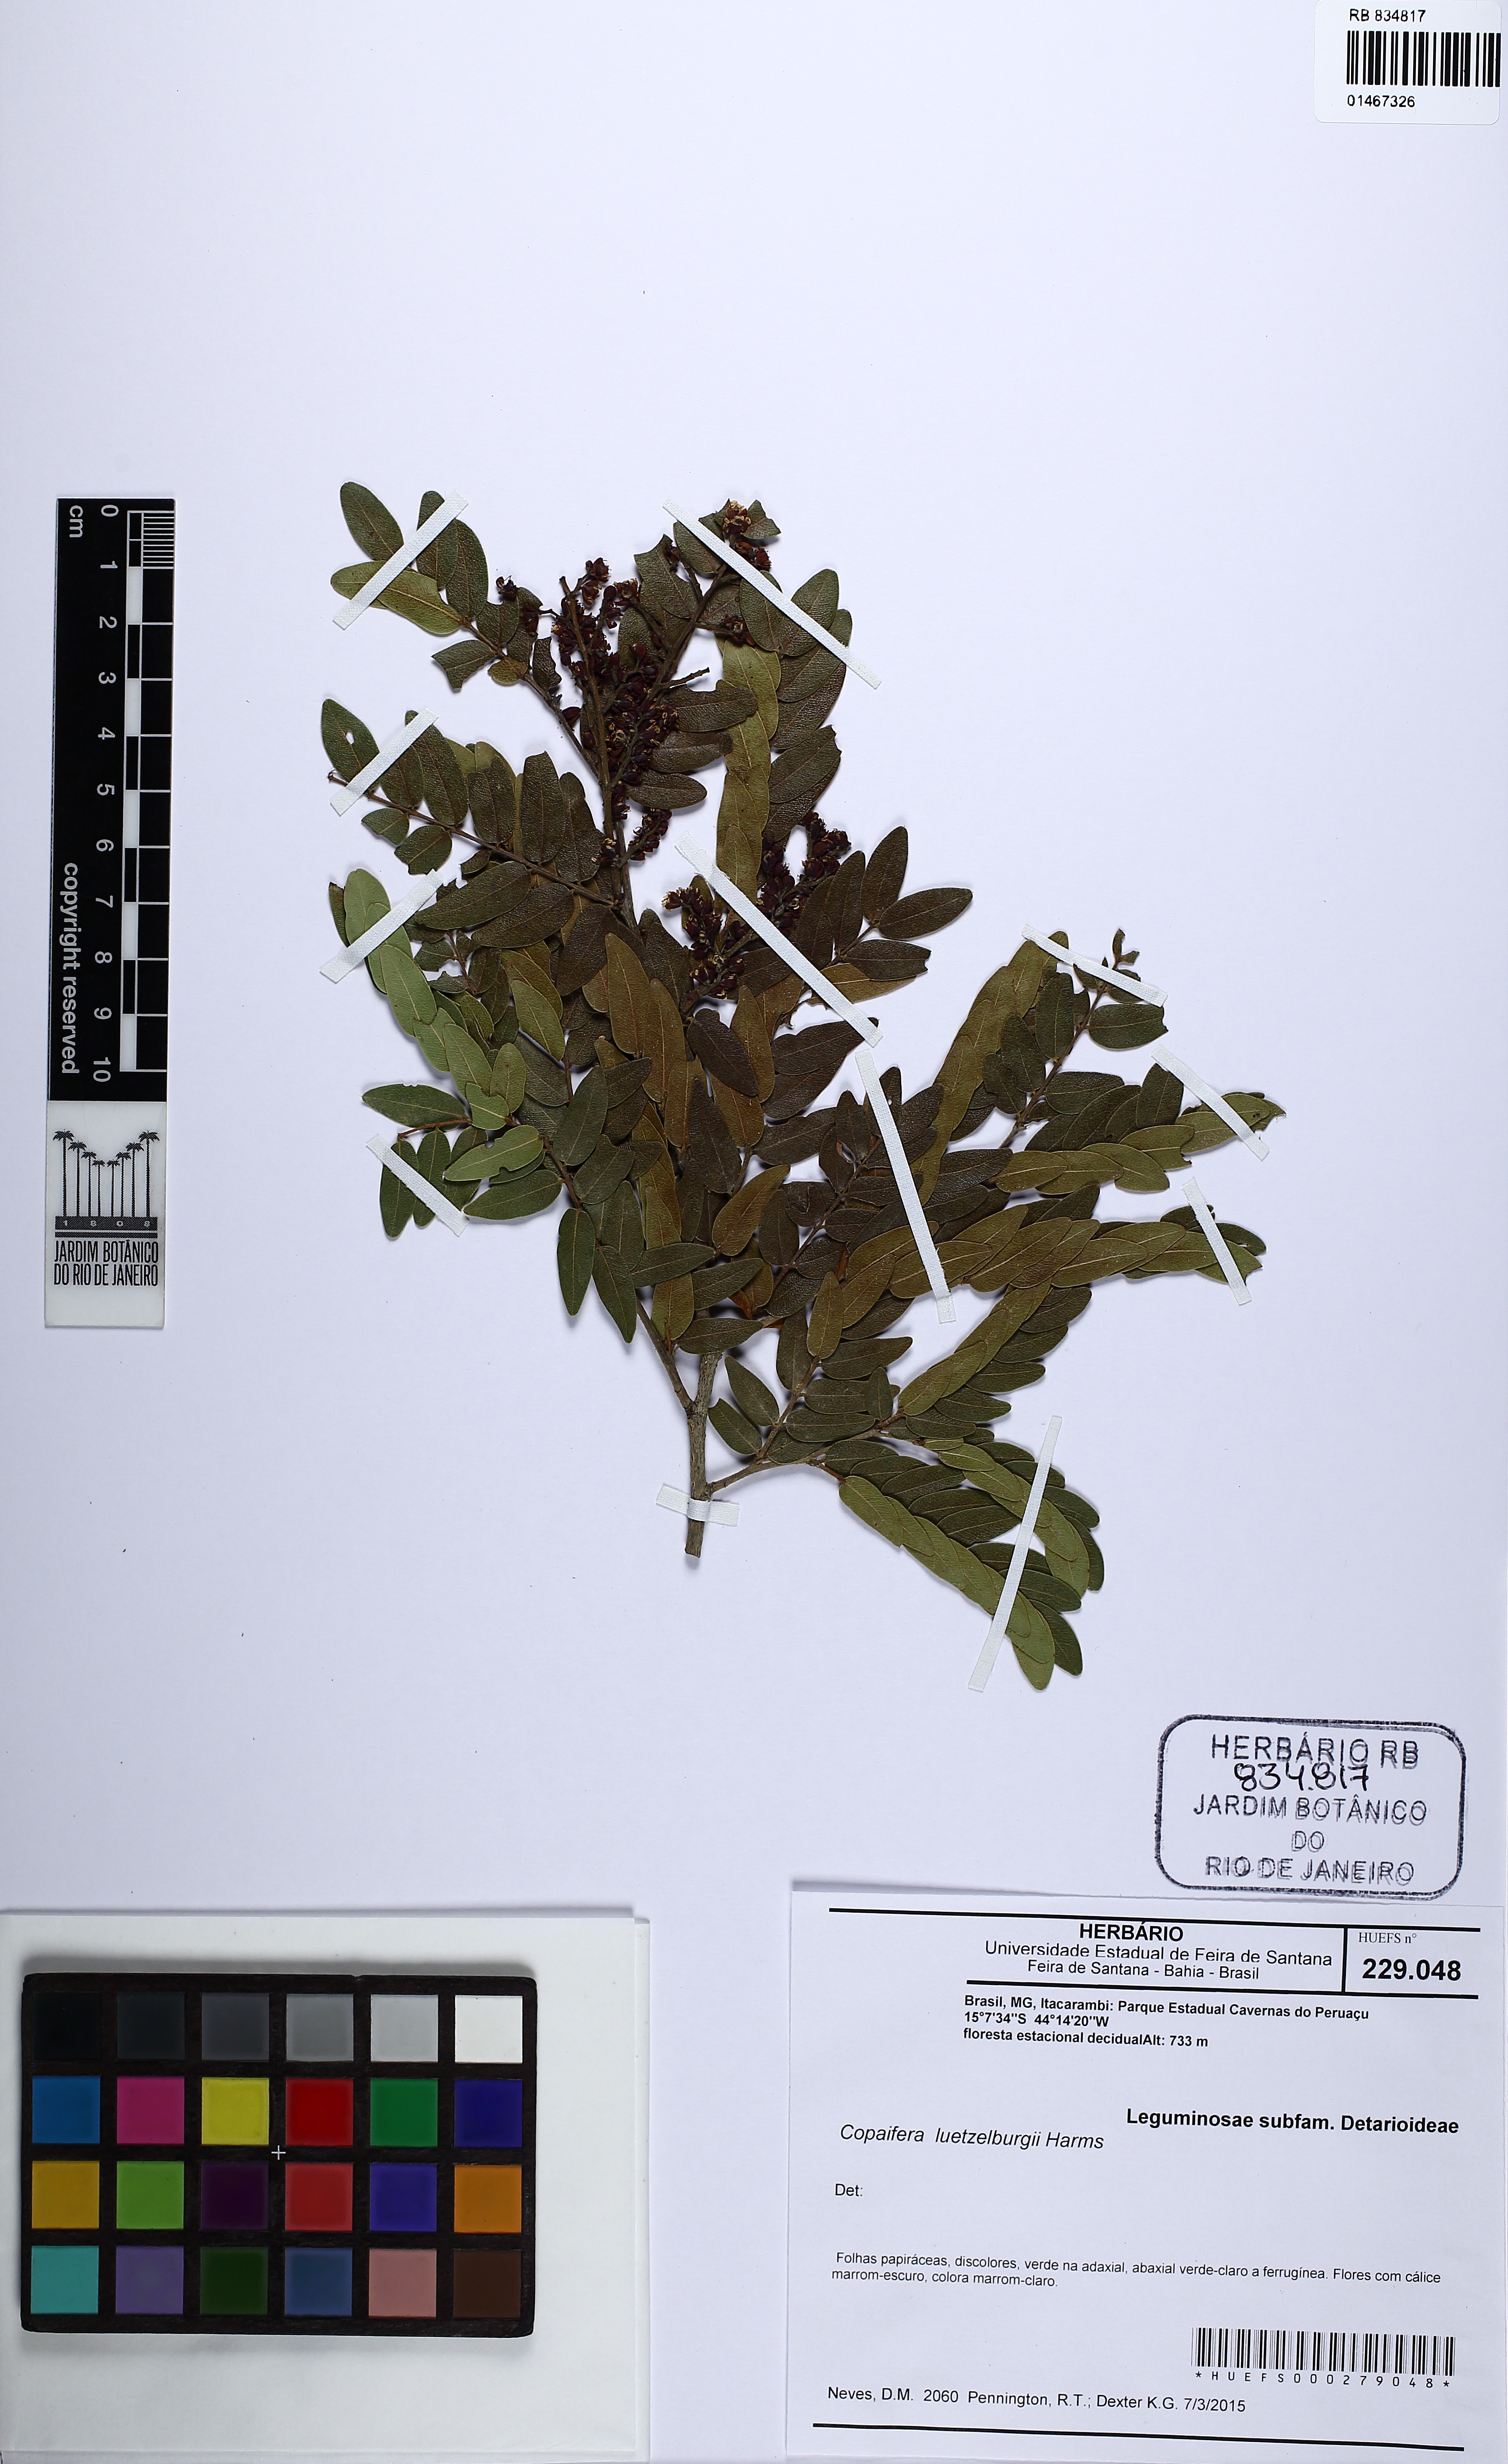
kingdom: Plantae
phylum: Tracheophyta
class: Magnoliopsida
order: Fabales
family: Fabaceae
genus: Copaifera
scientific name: Copaifera luetzelburgii
